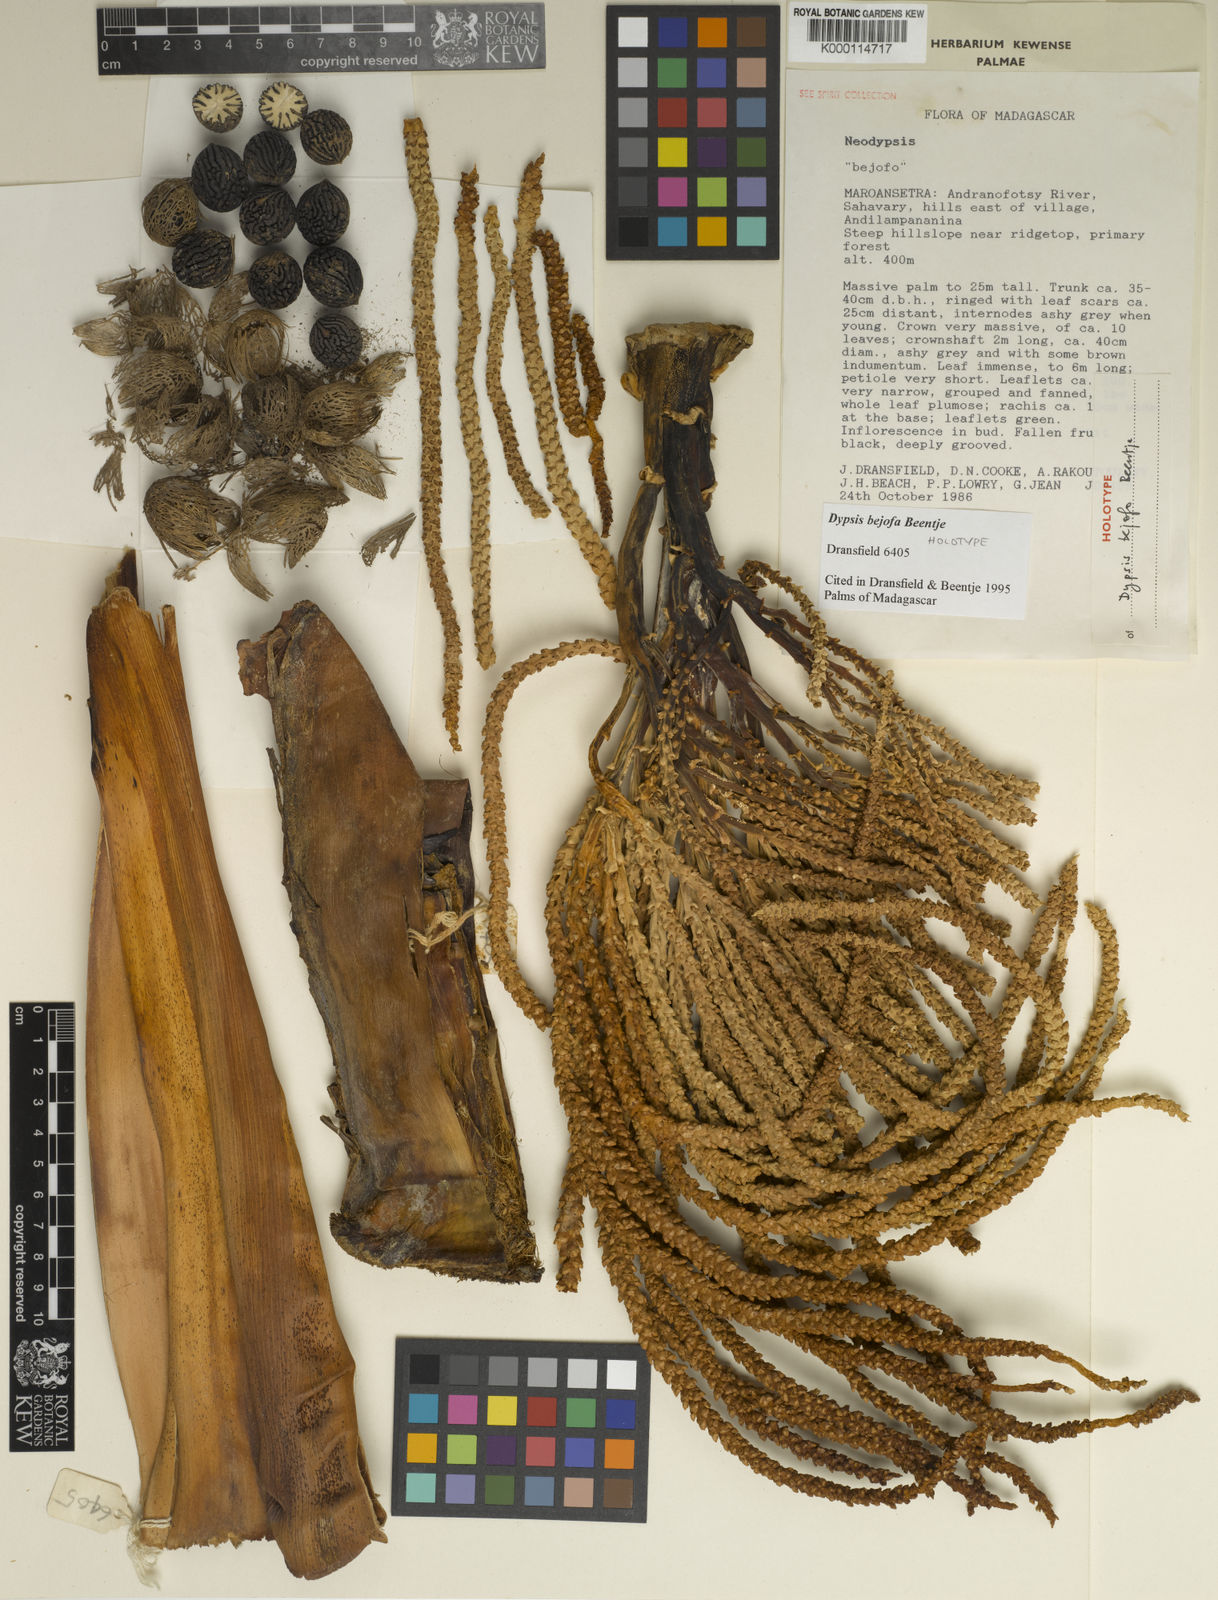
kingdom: Plantae
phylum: Tracheophyta
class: Liliopsida
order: Arecales
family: Arecaceae
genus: Dypsis
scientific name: Dypsis bejofo
